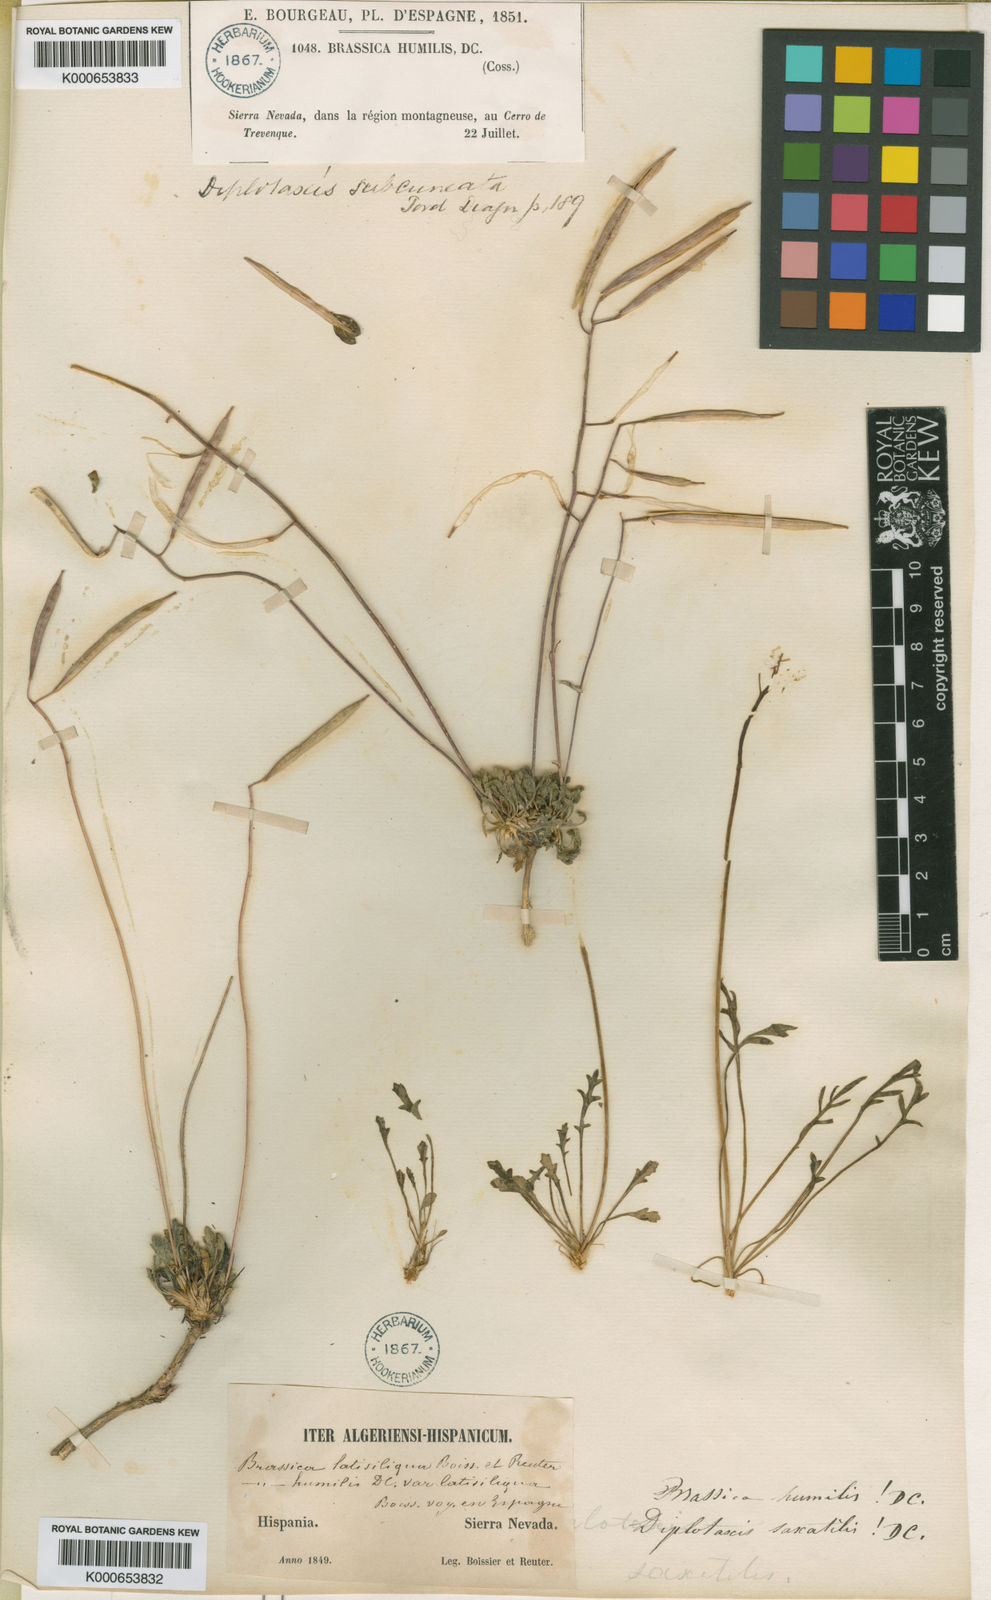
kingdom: Plantae
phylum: Tracheophyta
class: Magnoliopsida
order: Brassicales
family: Brassicaceae
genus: Brassica
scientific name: Brassica repanda
